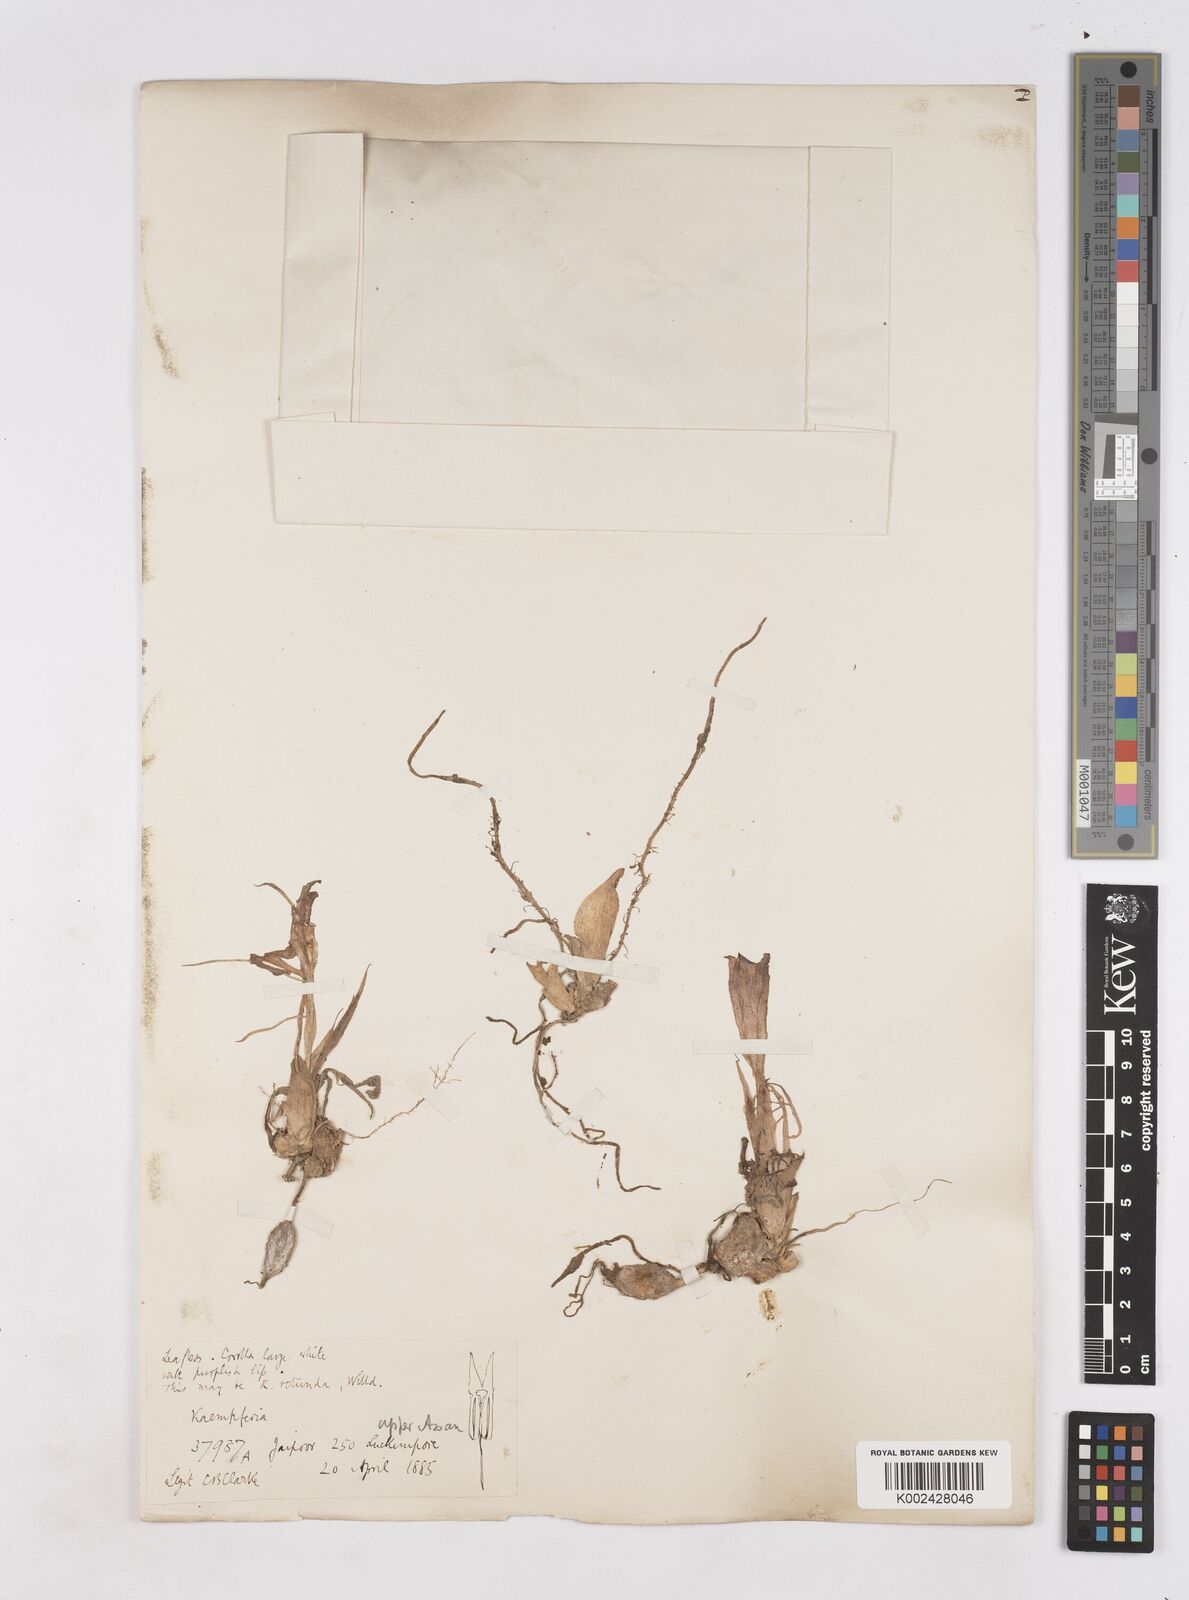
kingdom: Plantae
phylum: Tracheophyta
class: Liliopsida
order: Zingiberales
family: Zingiberaceae
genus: Kaempferia
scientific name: Kaempferia rotunda
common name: Tropical-crocus
